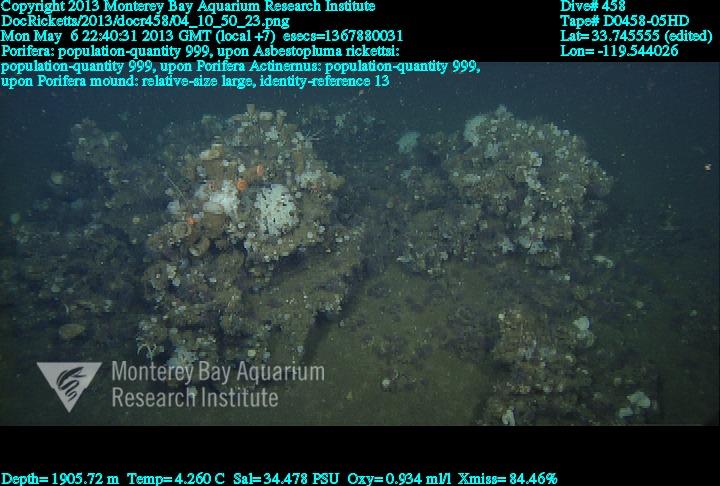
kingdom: Animalia
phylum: Porifera
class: Demospongiae
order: Poecilosclerida
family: Cladorhizidae
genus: Asbestopluma
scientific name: Asbestopluma rickettsi
